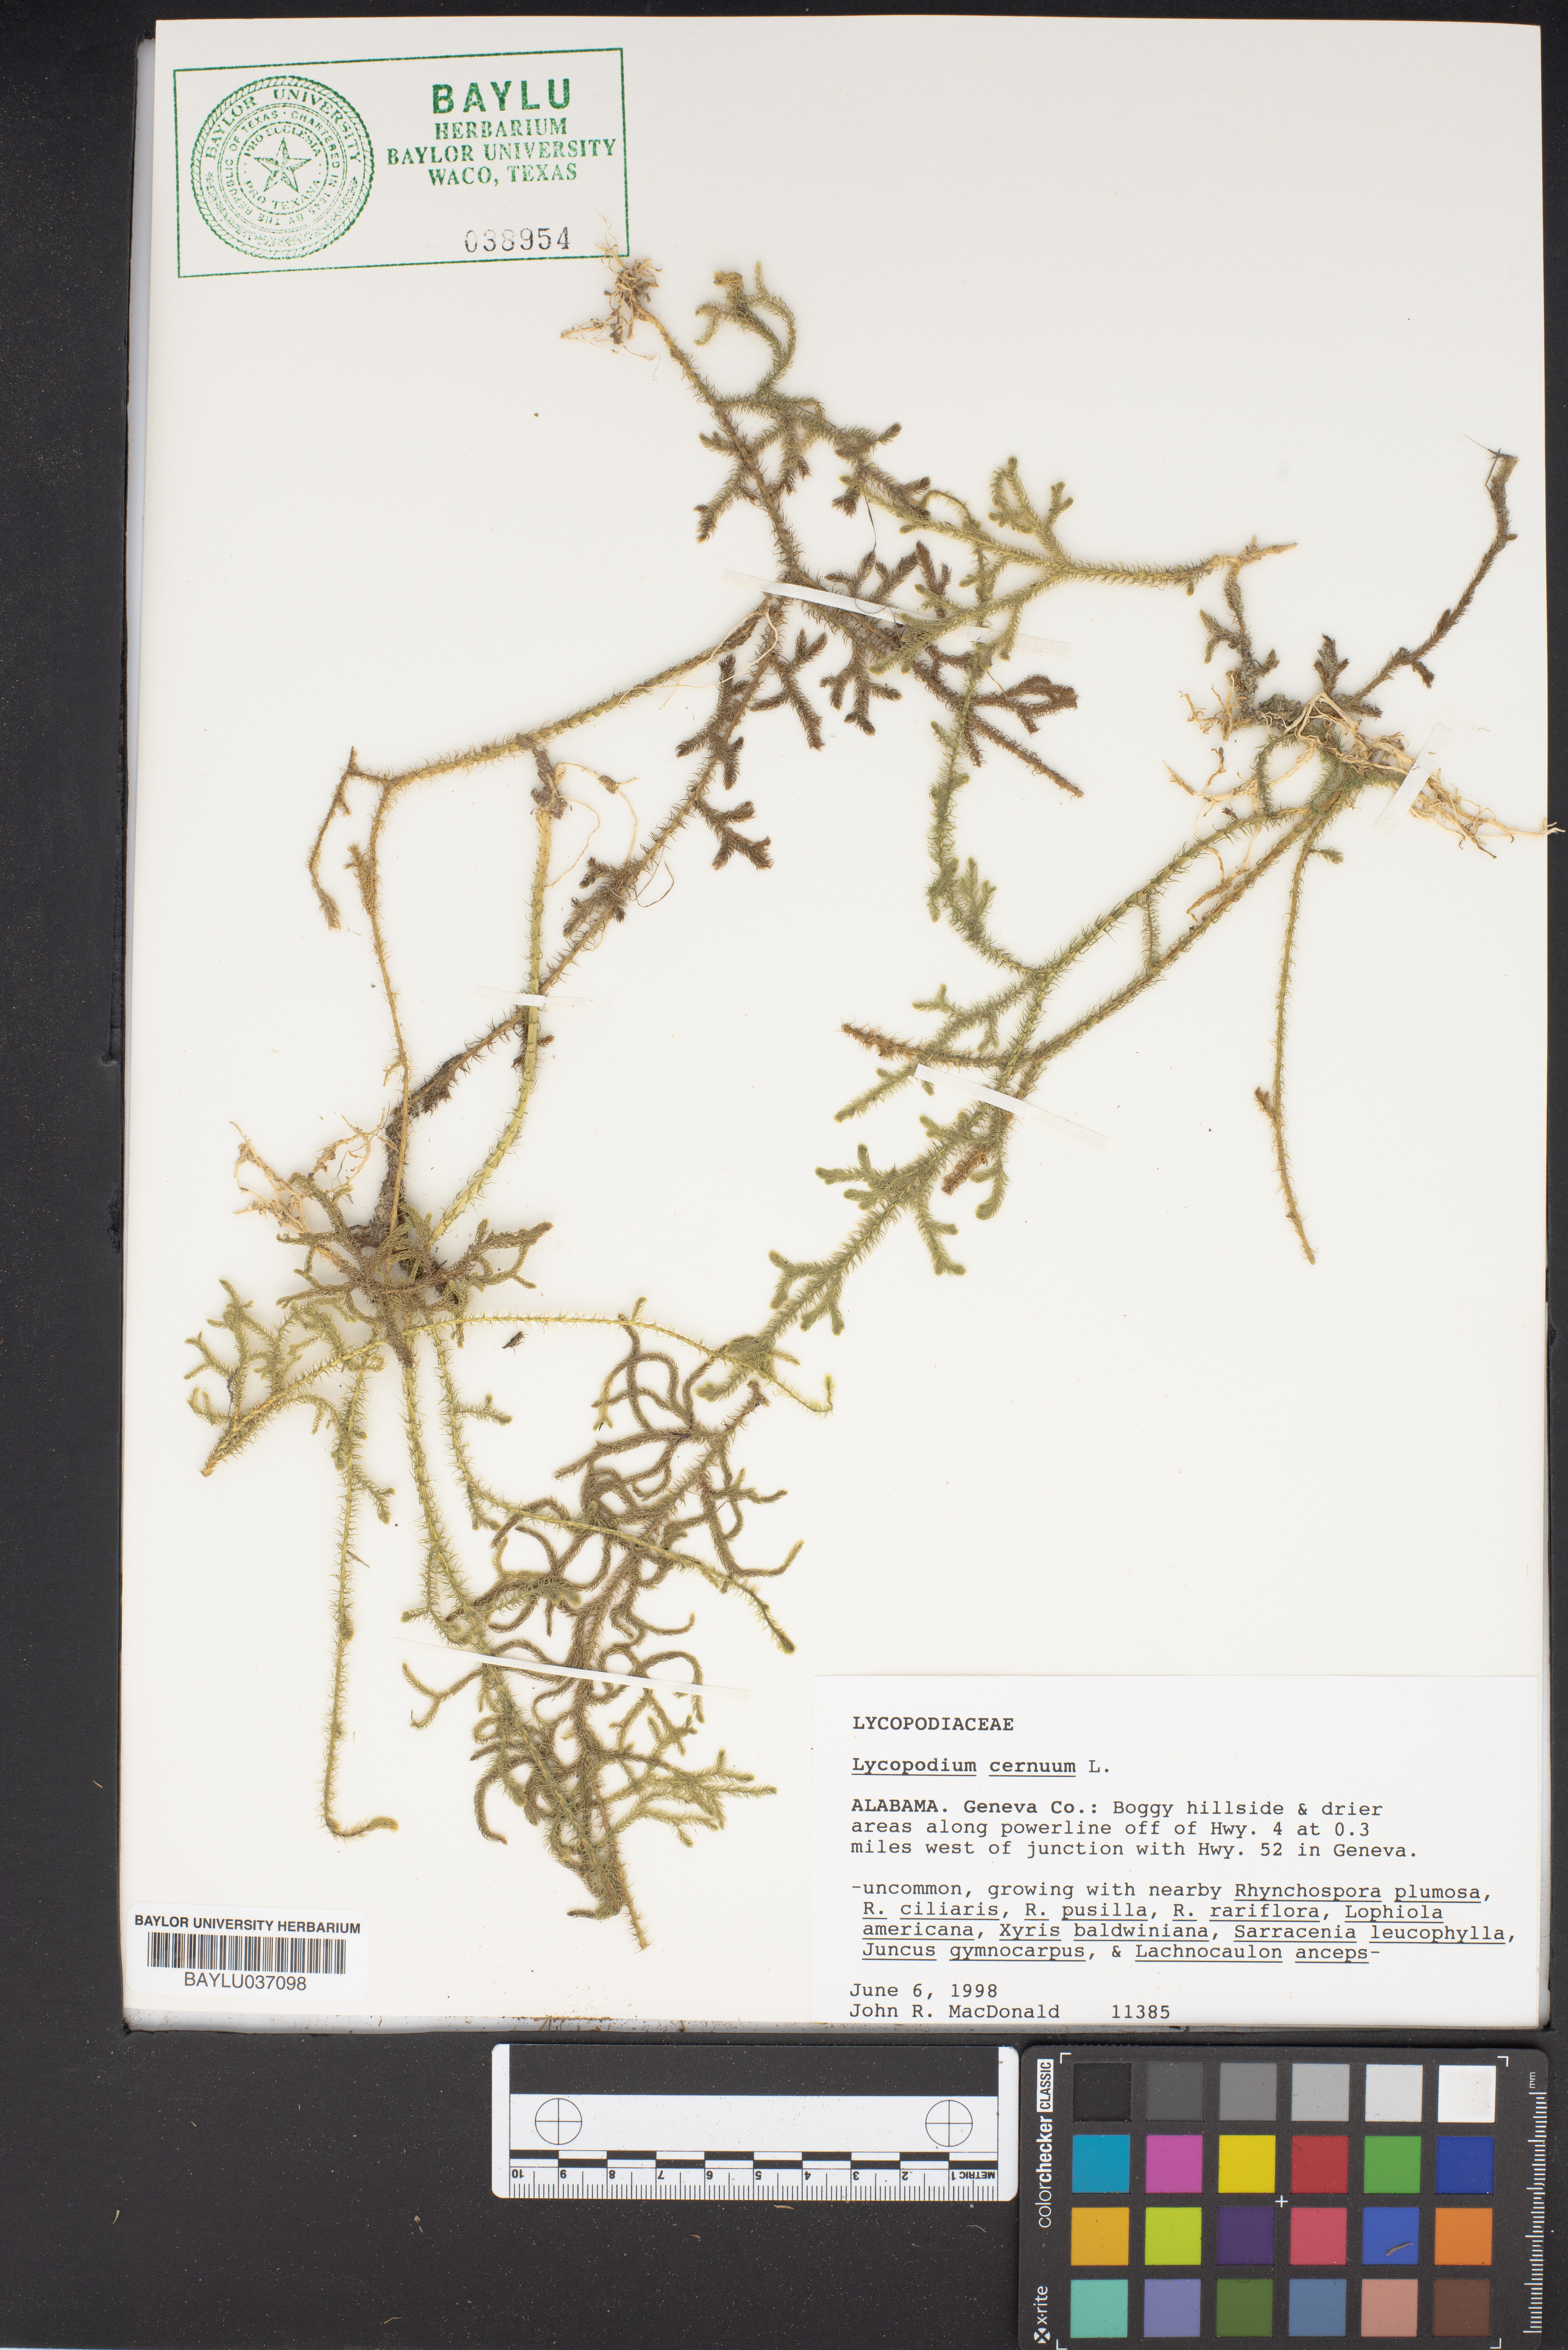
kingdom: Plantae
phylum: Tracheophyta
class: Lycopodiopsida
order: Lycopodiales
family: Lycopodiaceae
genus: Palhinhaea
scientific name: Palhinhaea cernua
